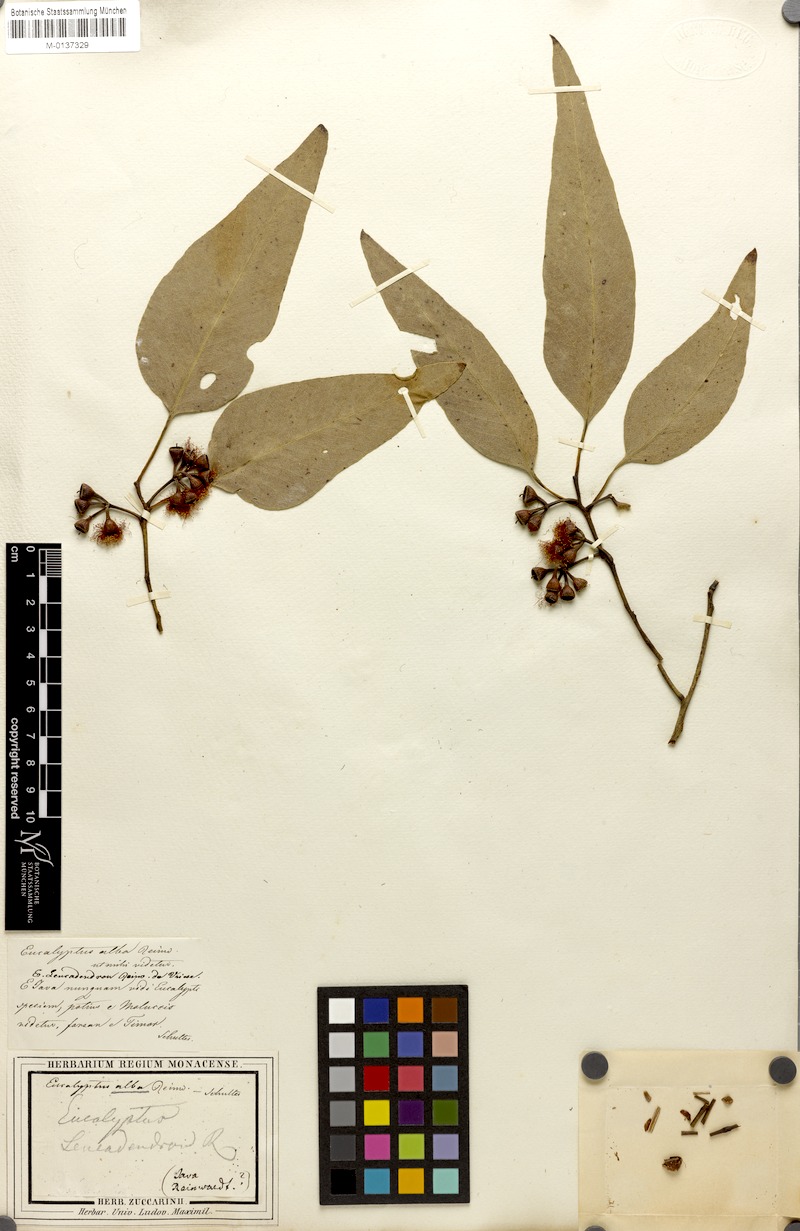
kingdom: Plantae
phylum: Tracheophyta
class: Magnoliopsida
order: Myrtales
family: Myrtaceae
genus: Eucalyptus
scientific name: Eucalyptus alba
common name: Khaki-gum
